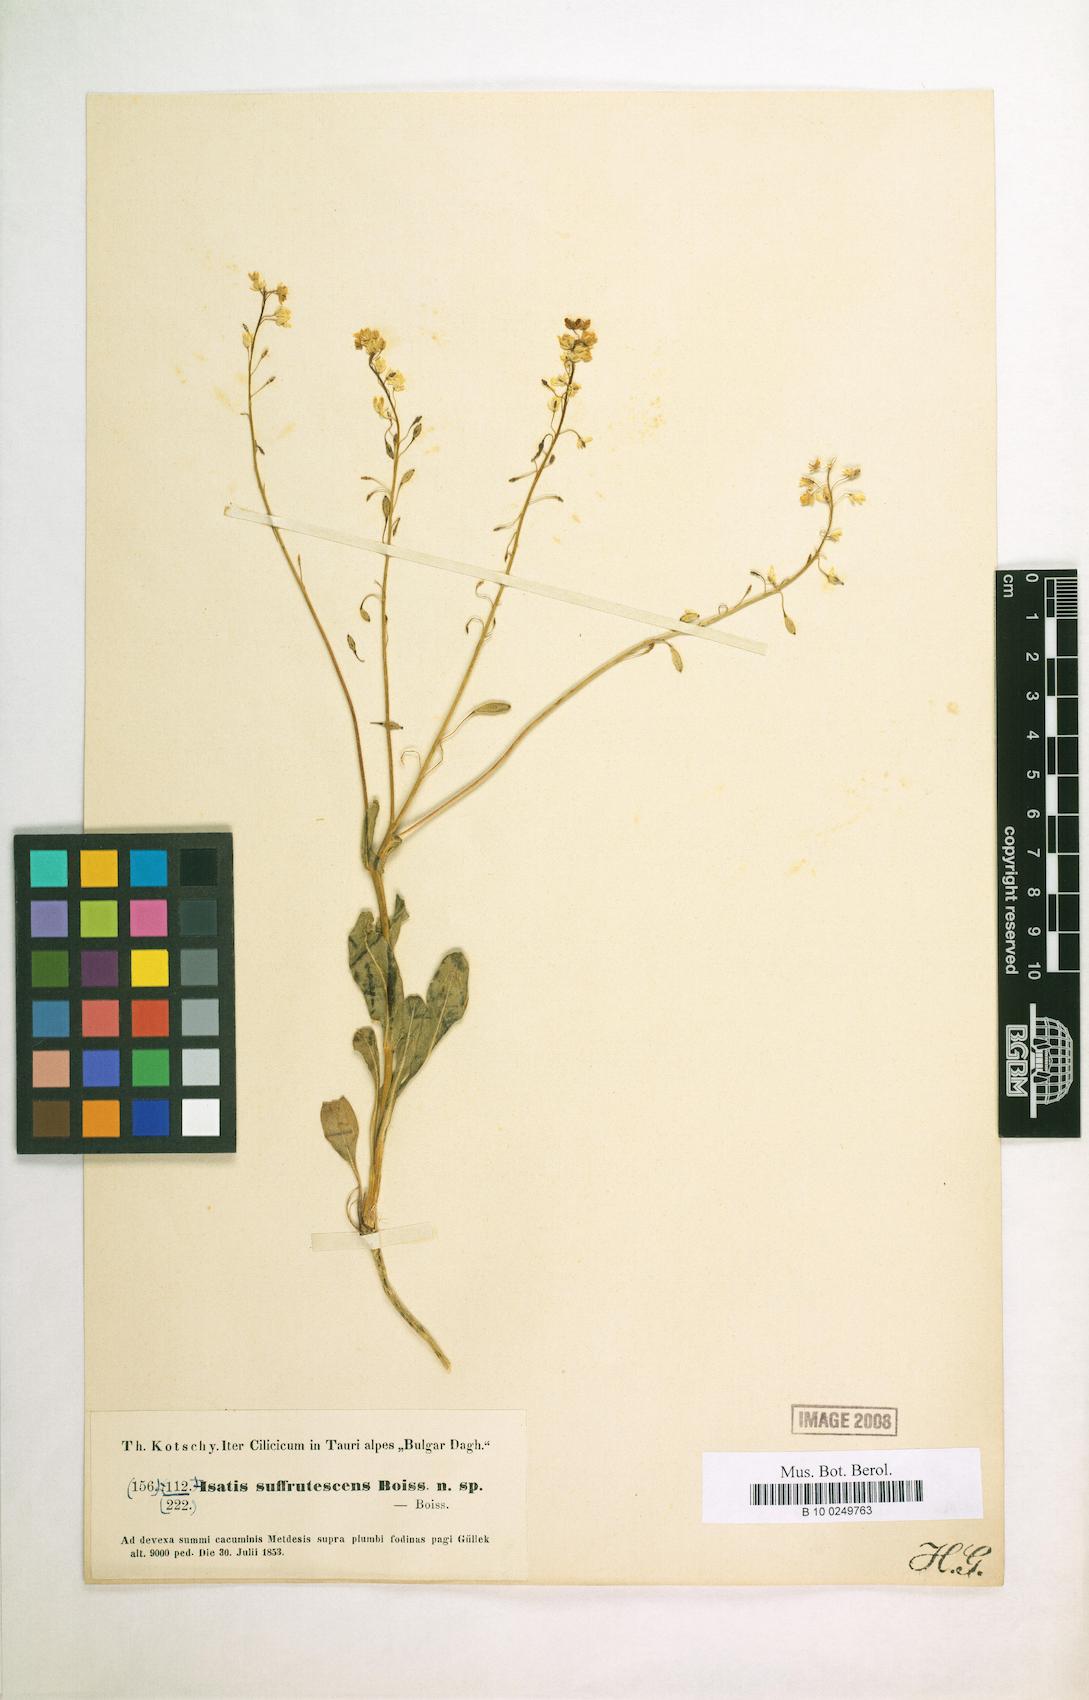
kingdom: Plantae
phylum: Tracheophyta
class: Magnoliopsida
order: Brassicales
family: Brassicaceae
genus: Isatis
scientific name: Isatis suffrutescens
